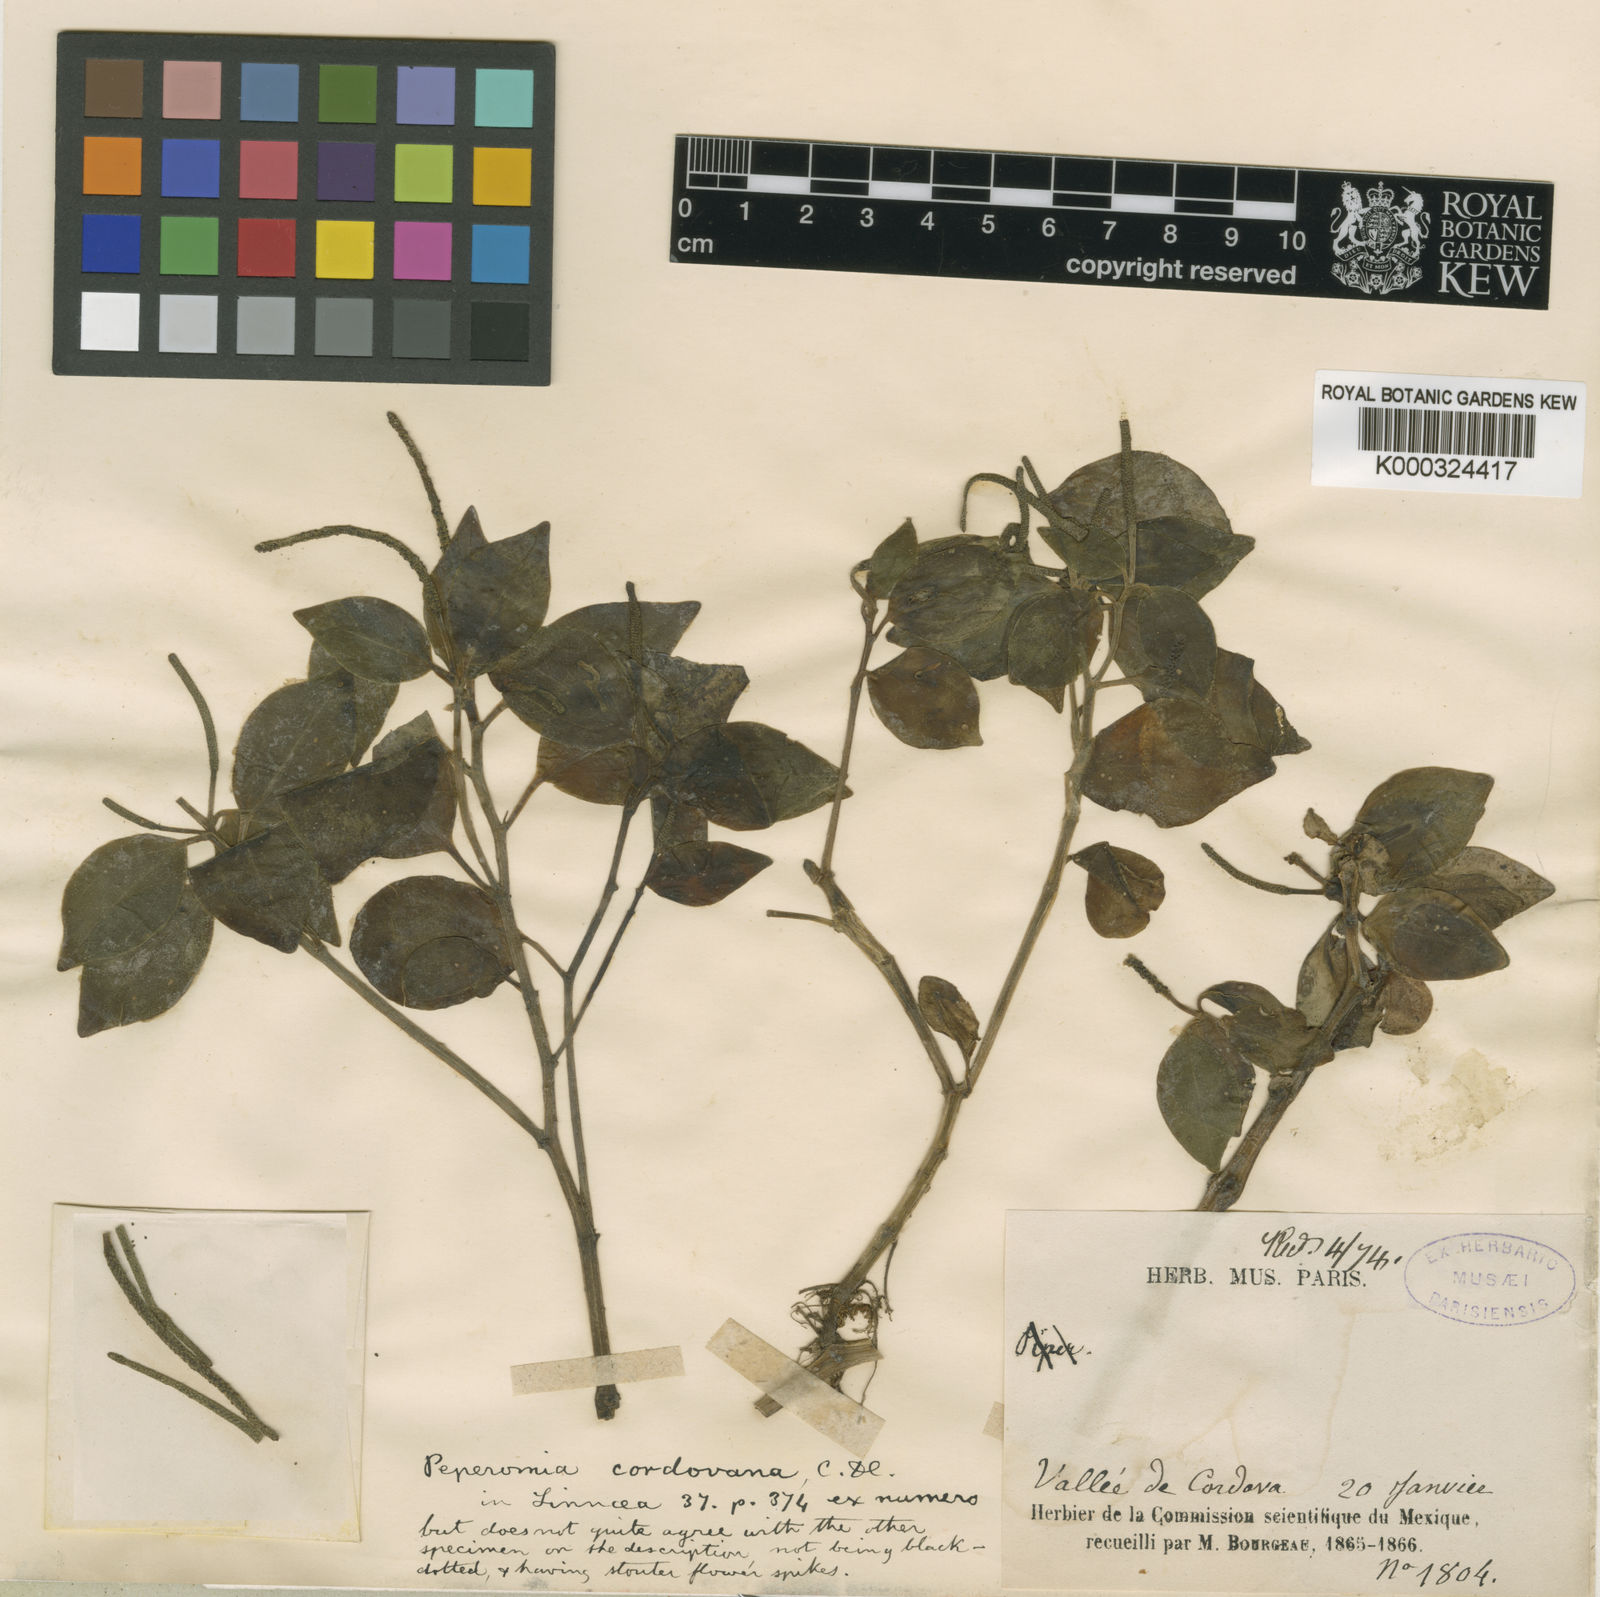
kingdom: Plantae
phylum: Tracheophyta
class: Magnoliopsida
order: Piperales
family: Piperaceae
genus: Peperomia
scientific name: Peperomia cordovana
